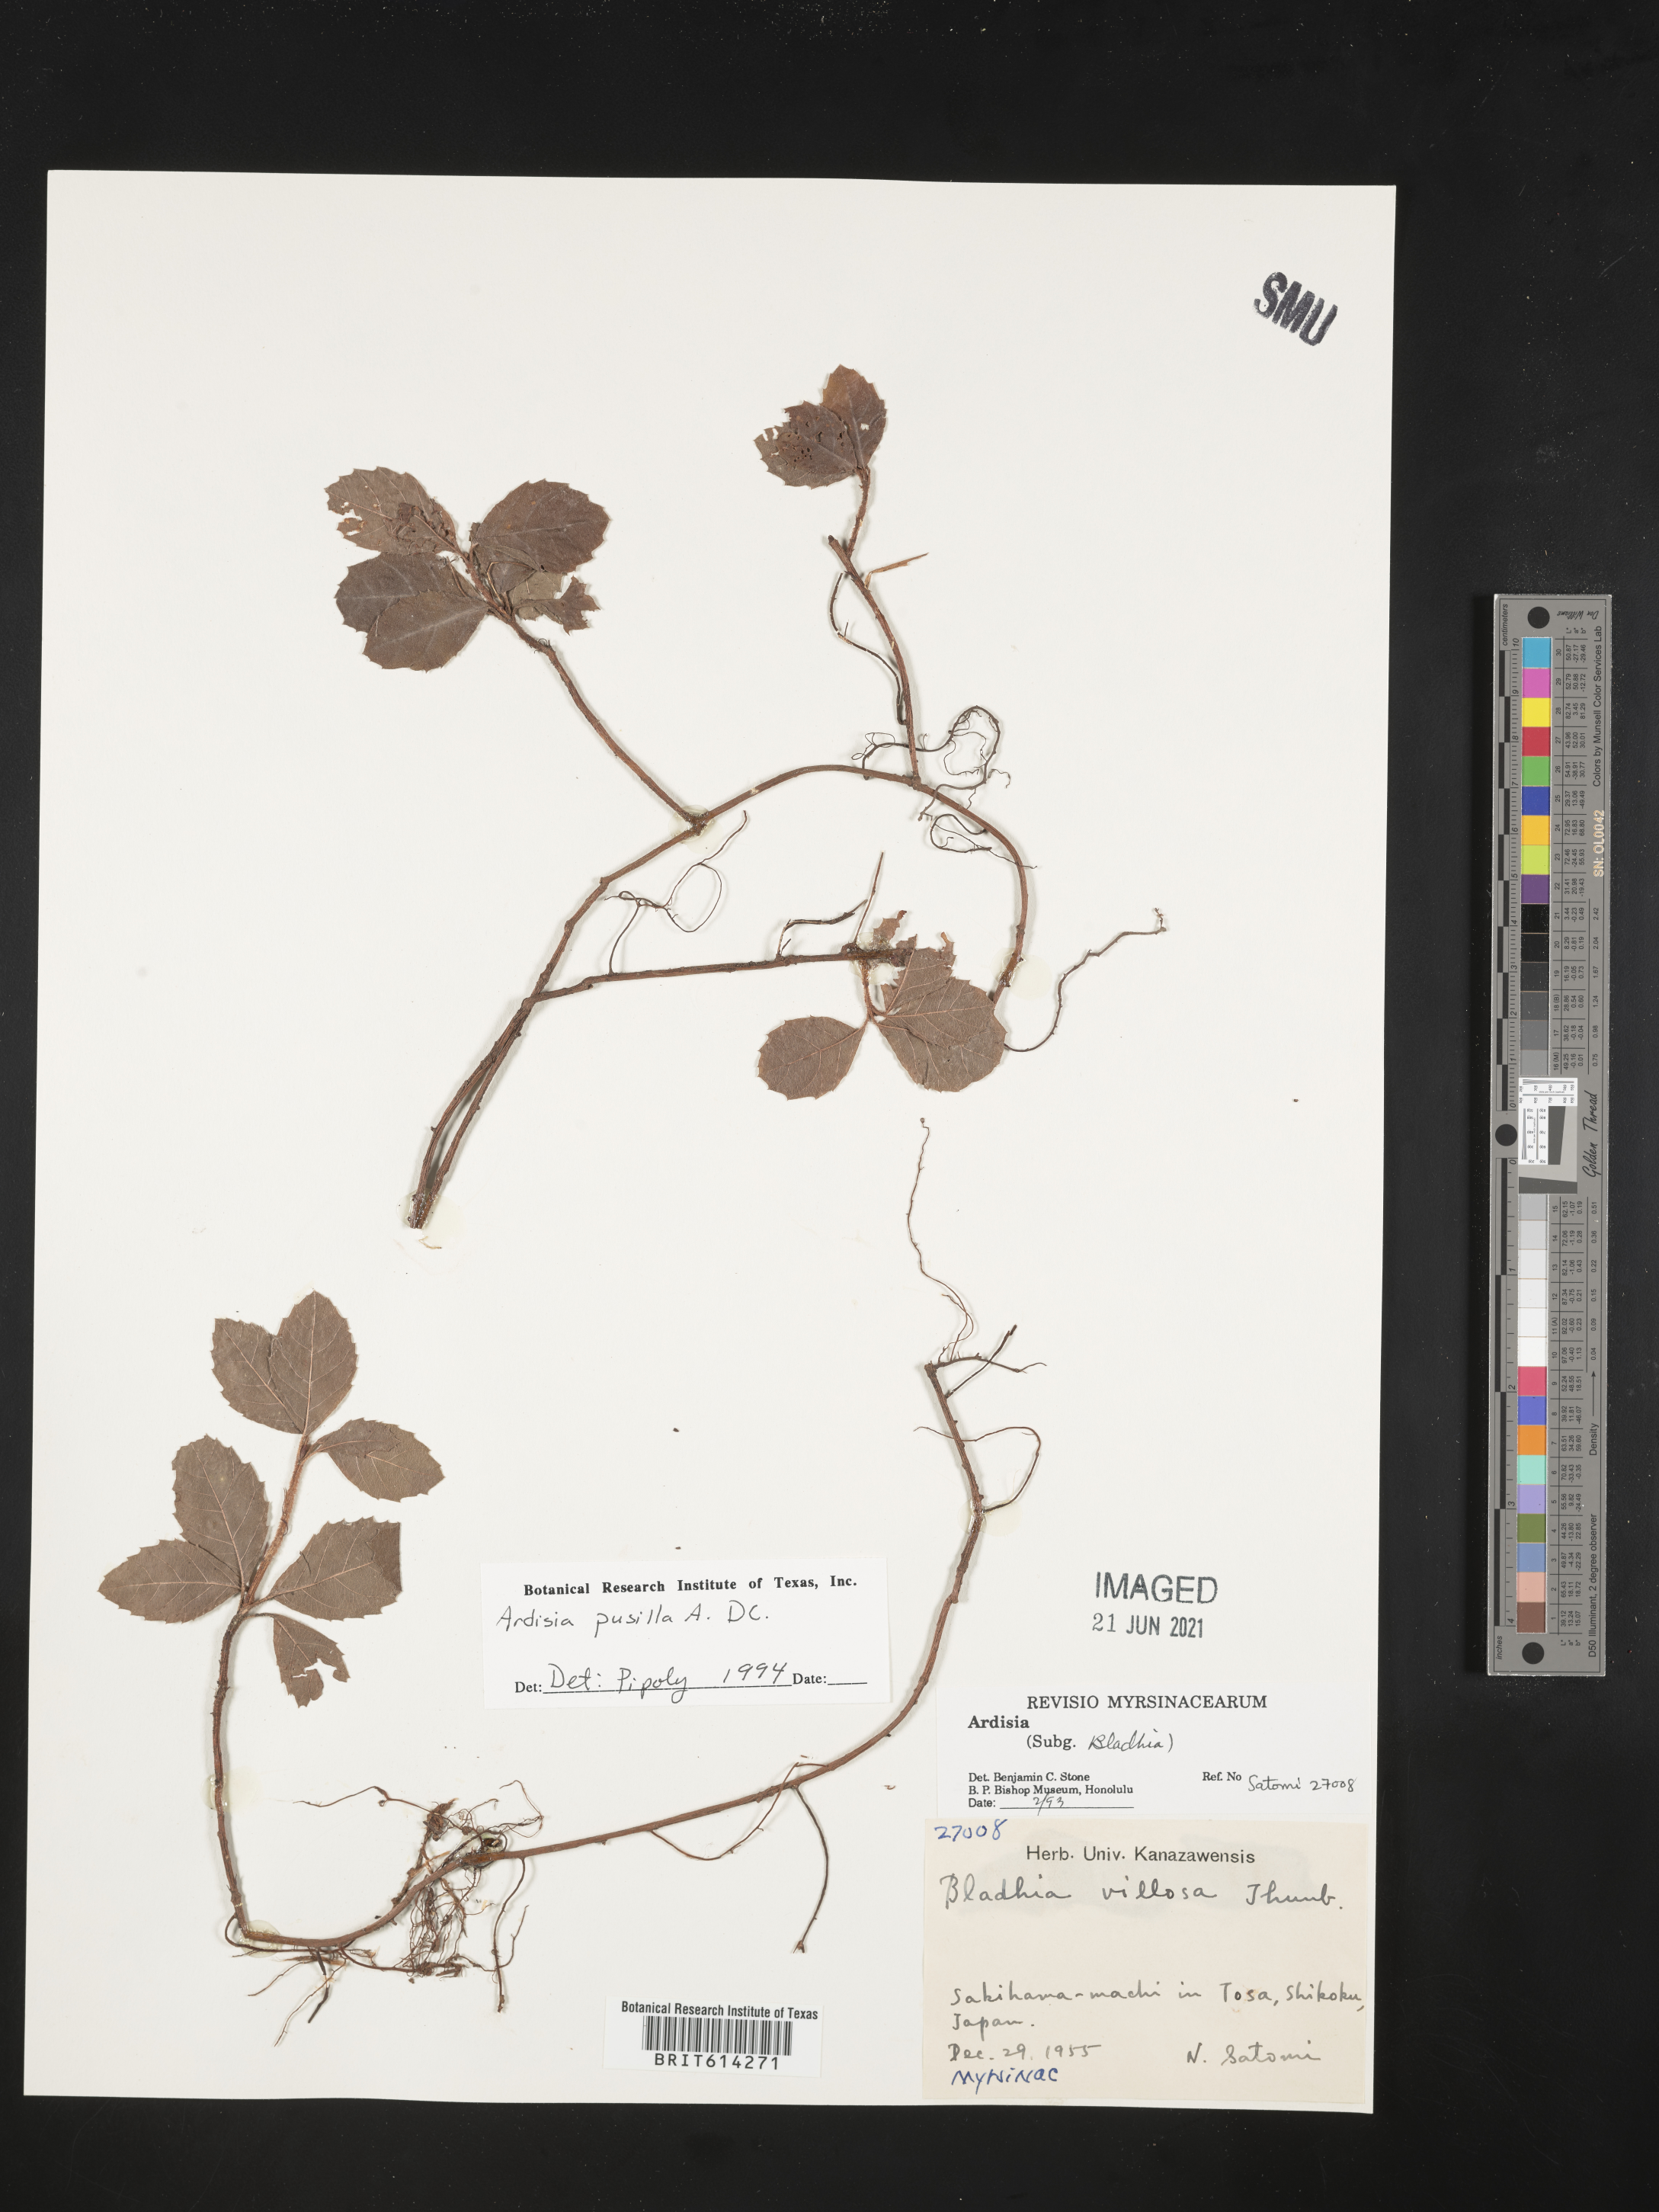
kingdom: Plantae
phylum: Tracheophyta
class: Magnoliopsida
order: Ericales
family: Primulaceae
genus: Ardisia
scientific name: Ardisia pusilla
